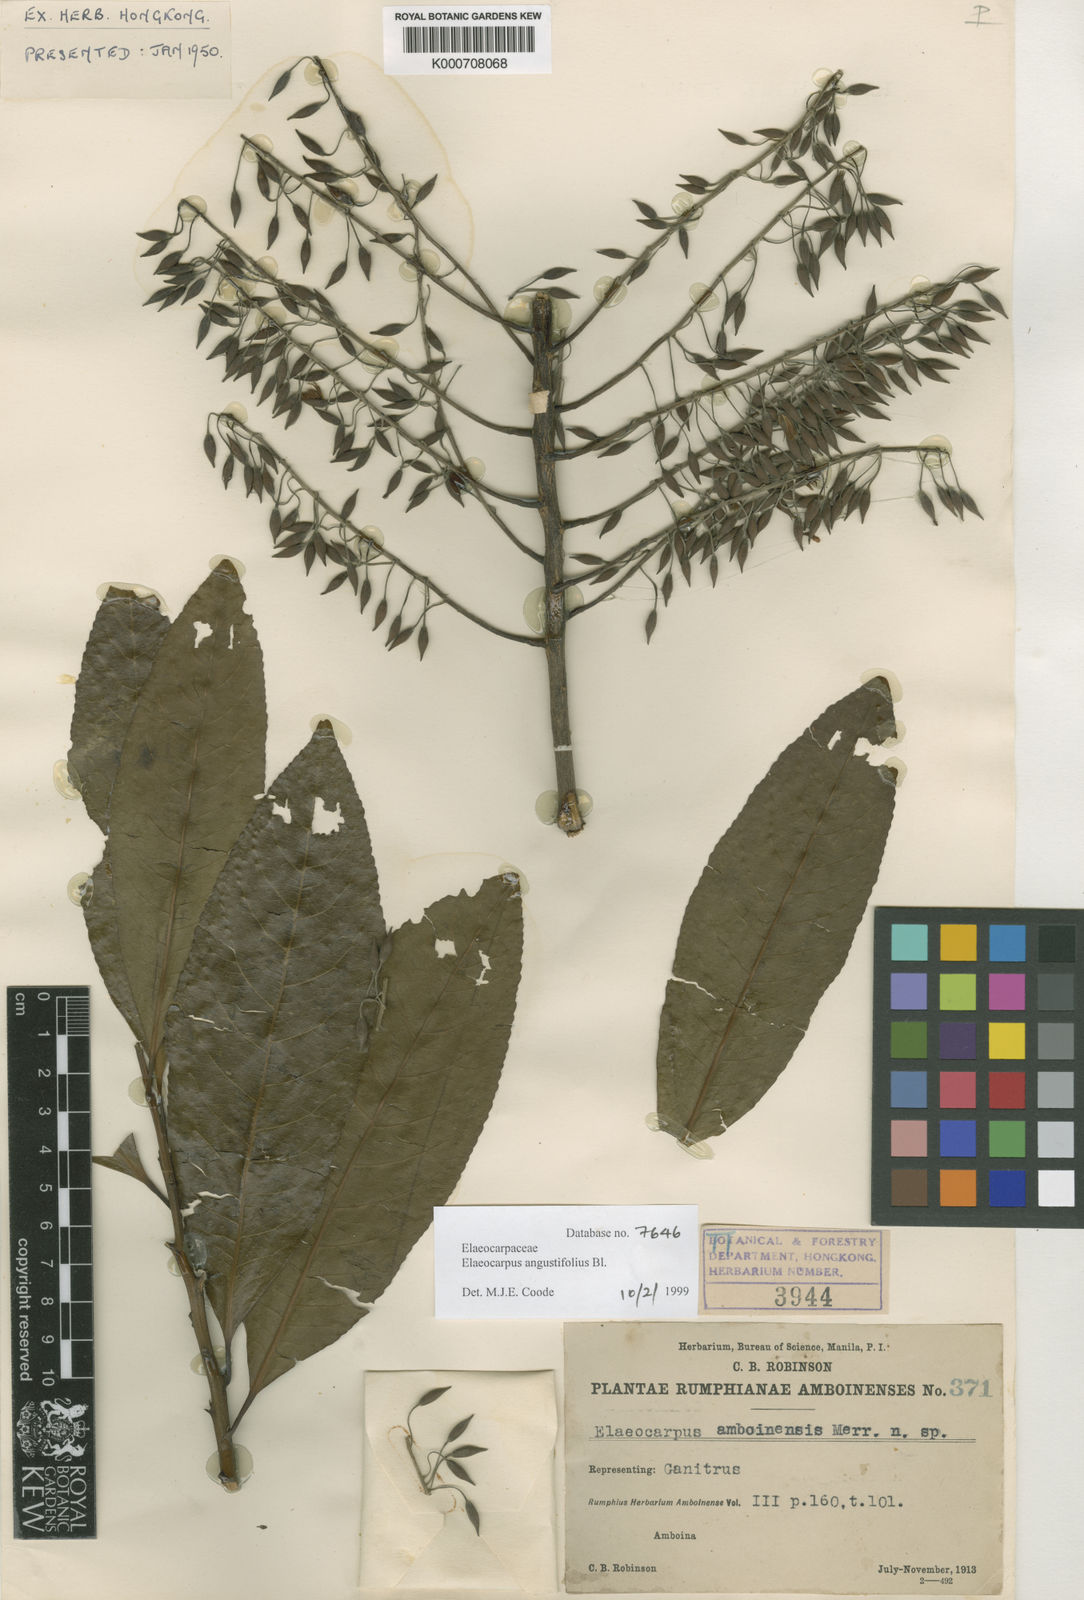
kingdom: Plantae
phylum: Tracheophyta
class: Magnoliopsida
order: Oxalidales
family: Elaeocarpaceae
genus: Elaeocarpus
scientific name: Elaeocarpus angustifolius
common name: Blue marble tree
